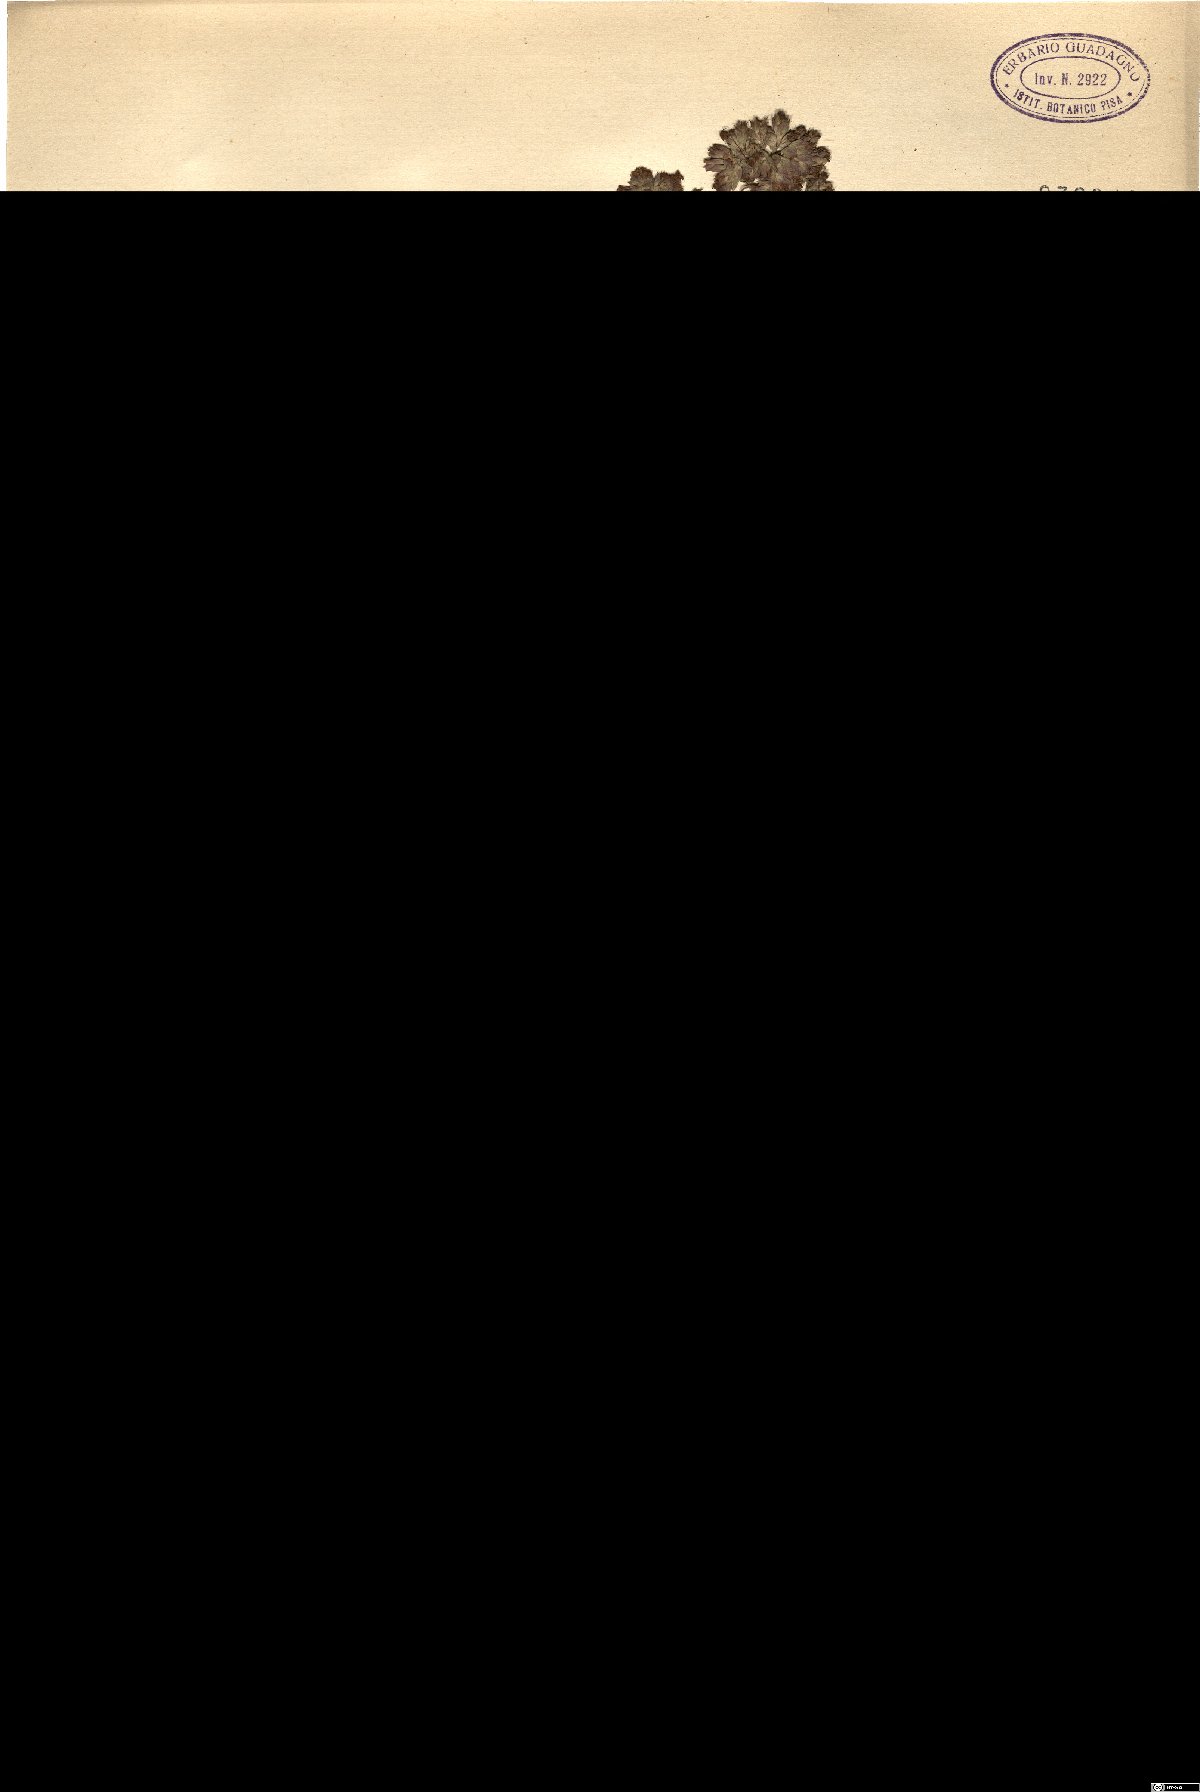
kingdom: Plantae
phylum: Tracheophyta
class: Magnoliopsida
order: Lamiales
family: Lamiaceae
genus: Origanum
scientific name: Origanum vulgare
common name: Wild marjoram
